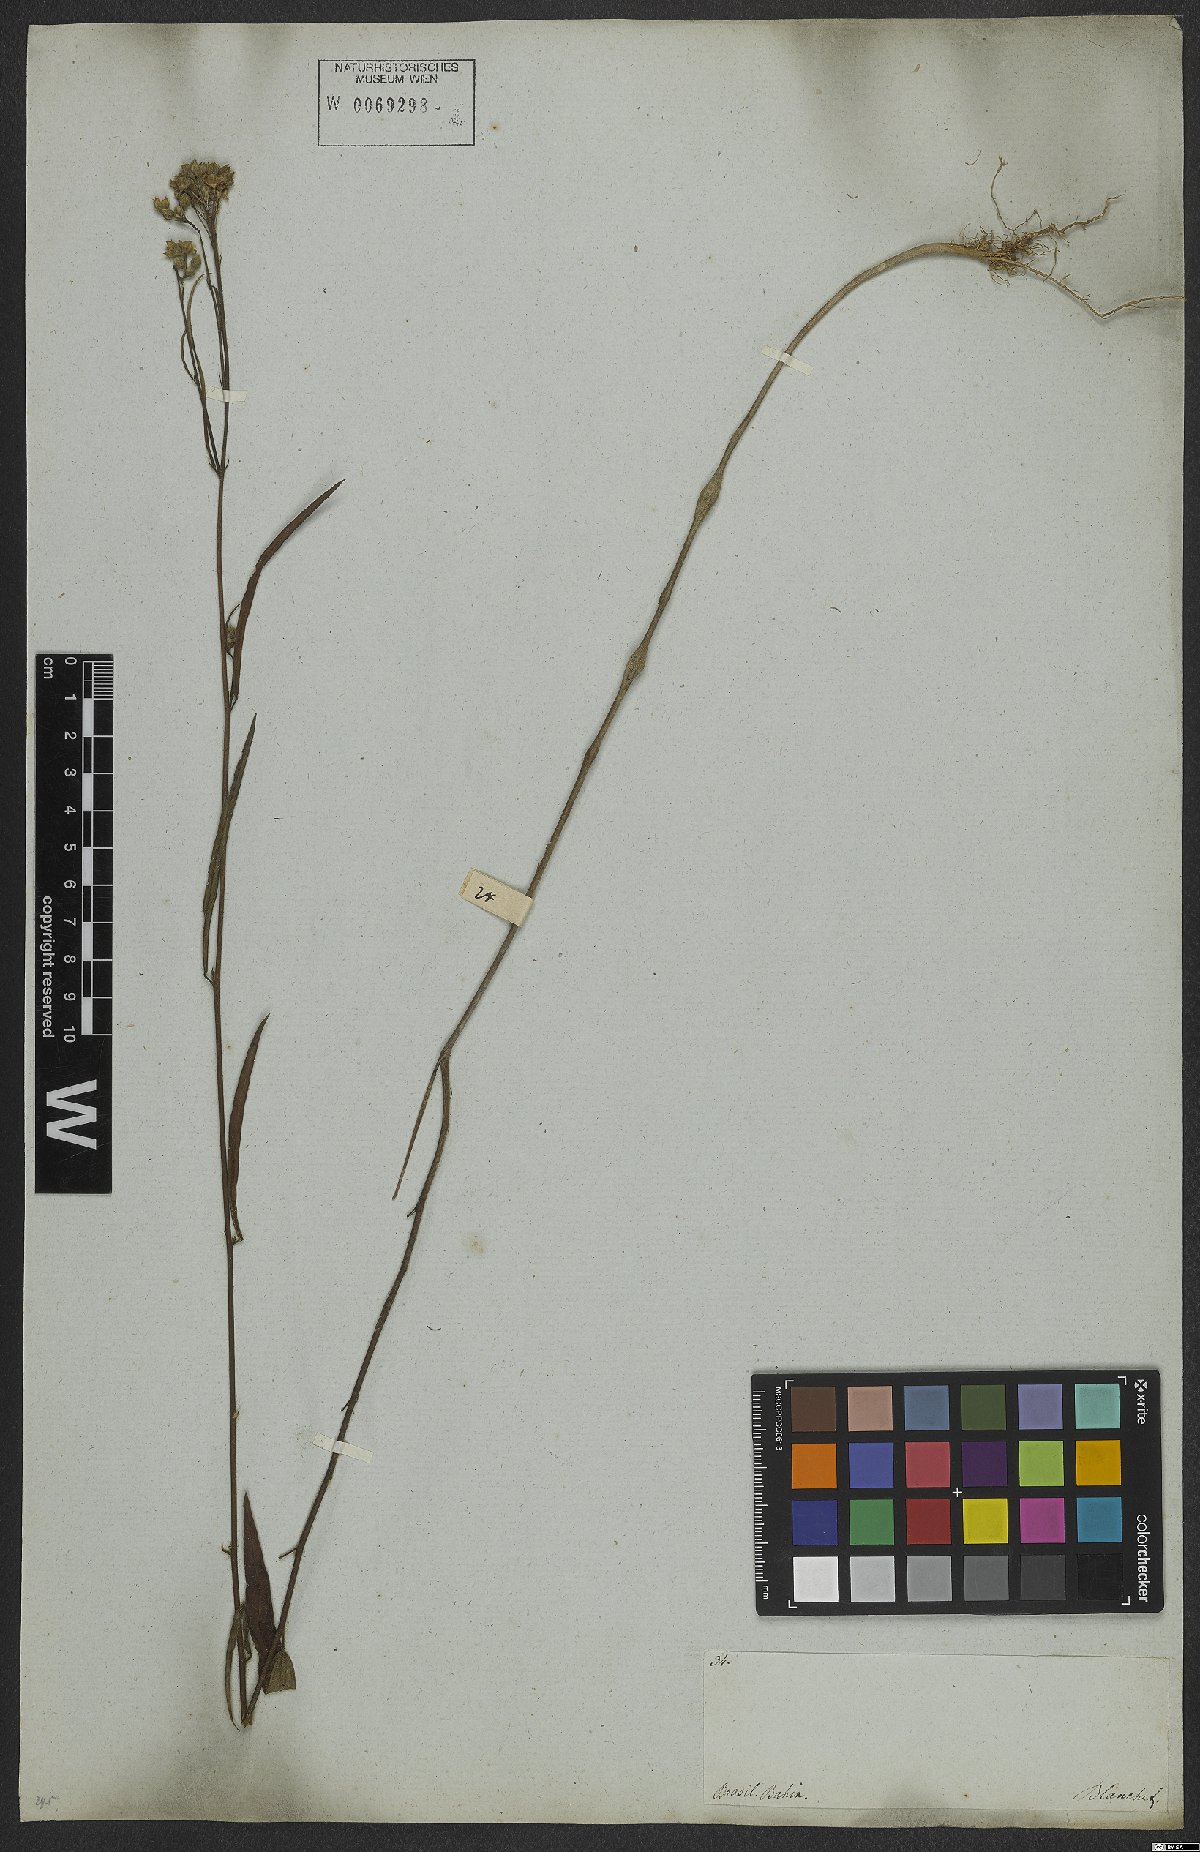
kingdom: Plantae
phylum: Tracheophyta
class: Magnoliopsida
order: Malvales
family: Malvaceae
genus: Sida
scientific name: Sida linifolia
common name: Flaxleaf fanpetals
